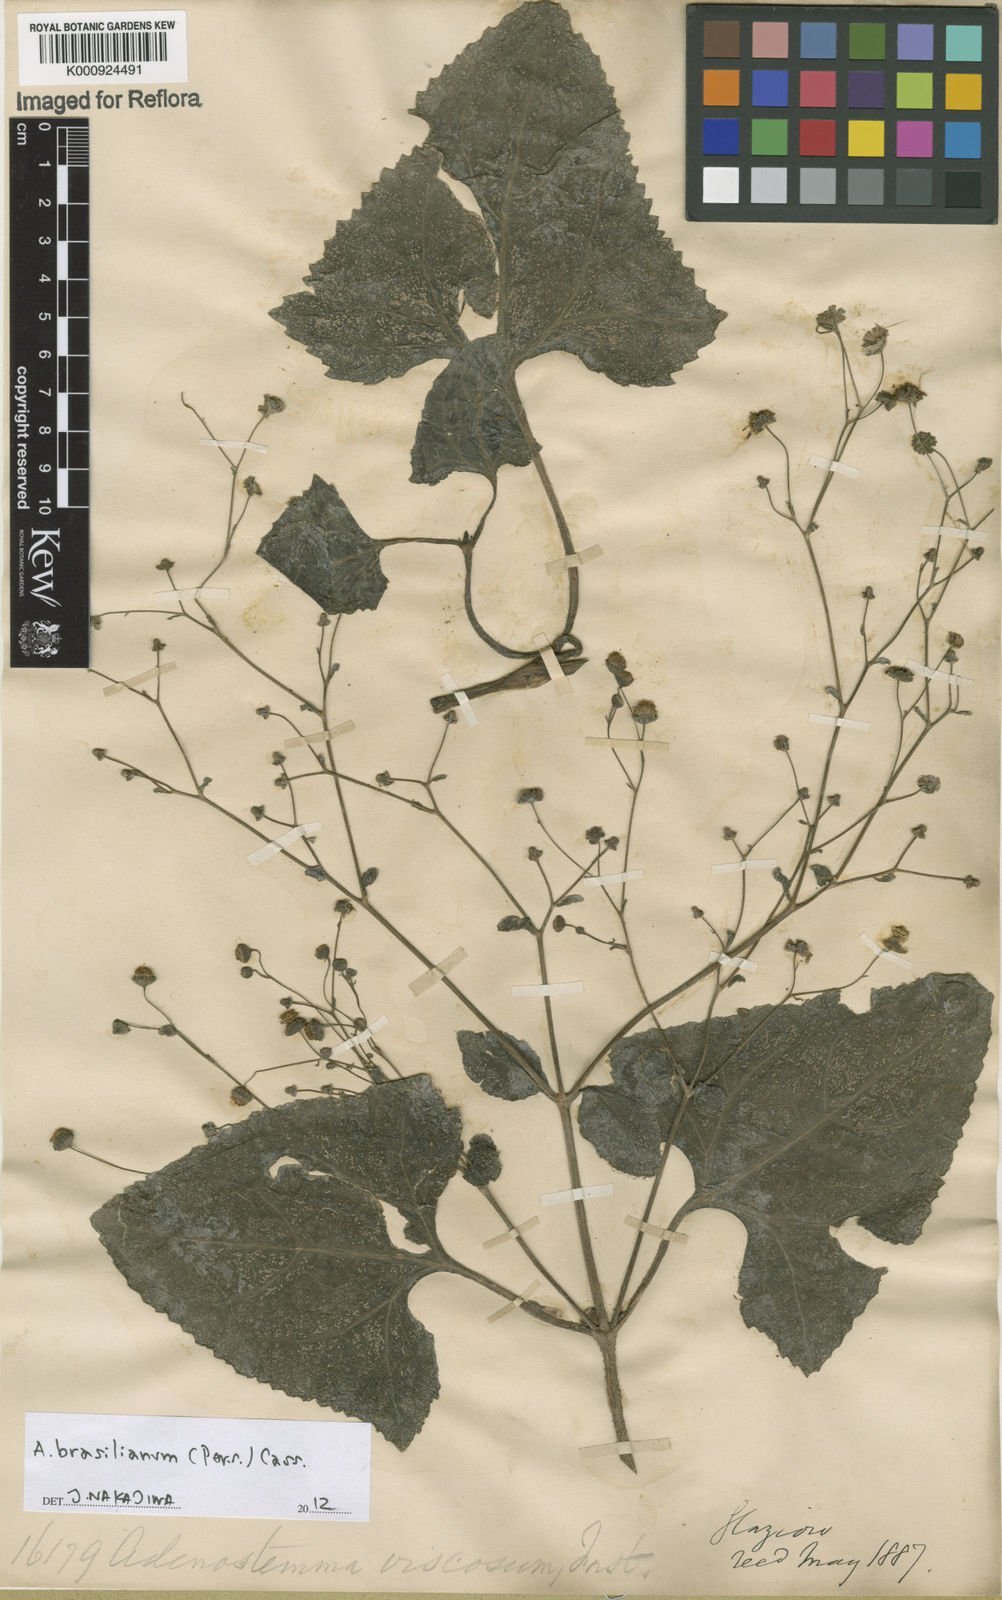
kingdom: Plantae
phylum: Tracheophyta
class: Magnoliopsida
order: Asterales
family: Asteraceae
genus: Adenostemma
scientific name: Adenostemma
